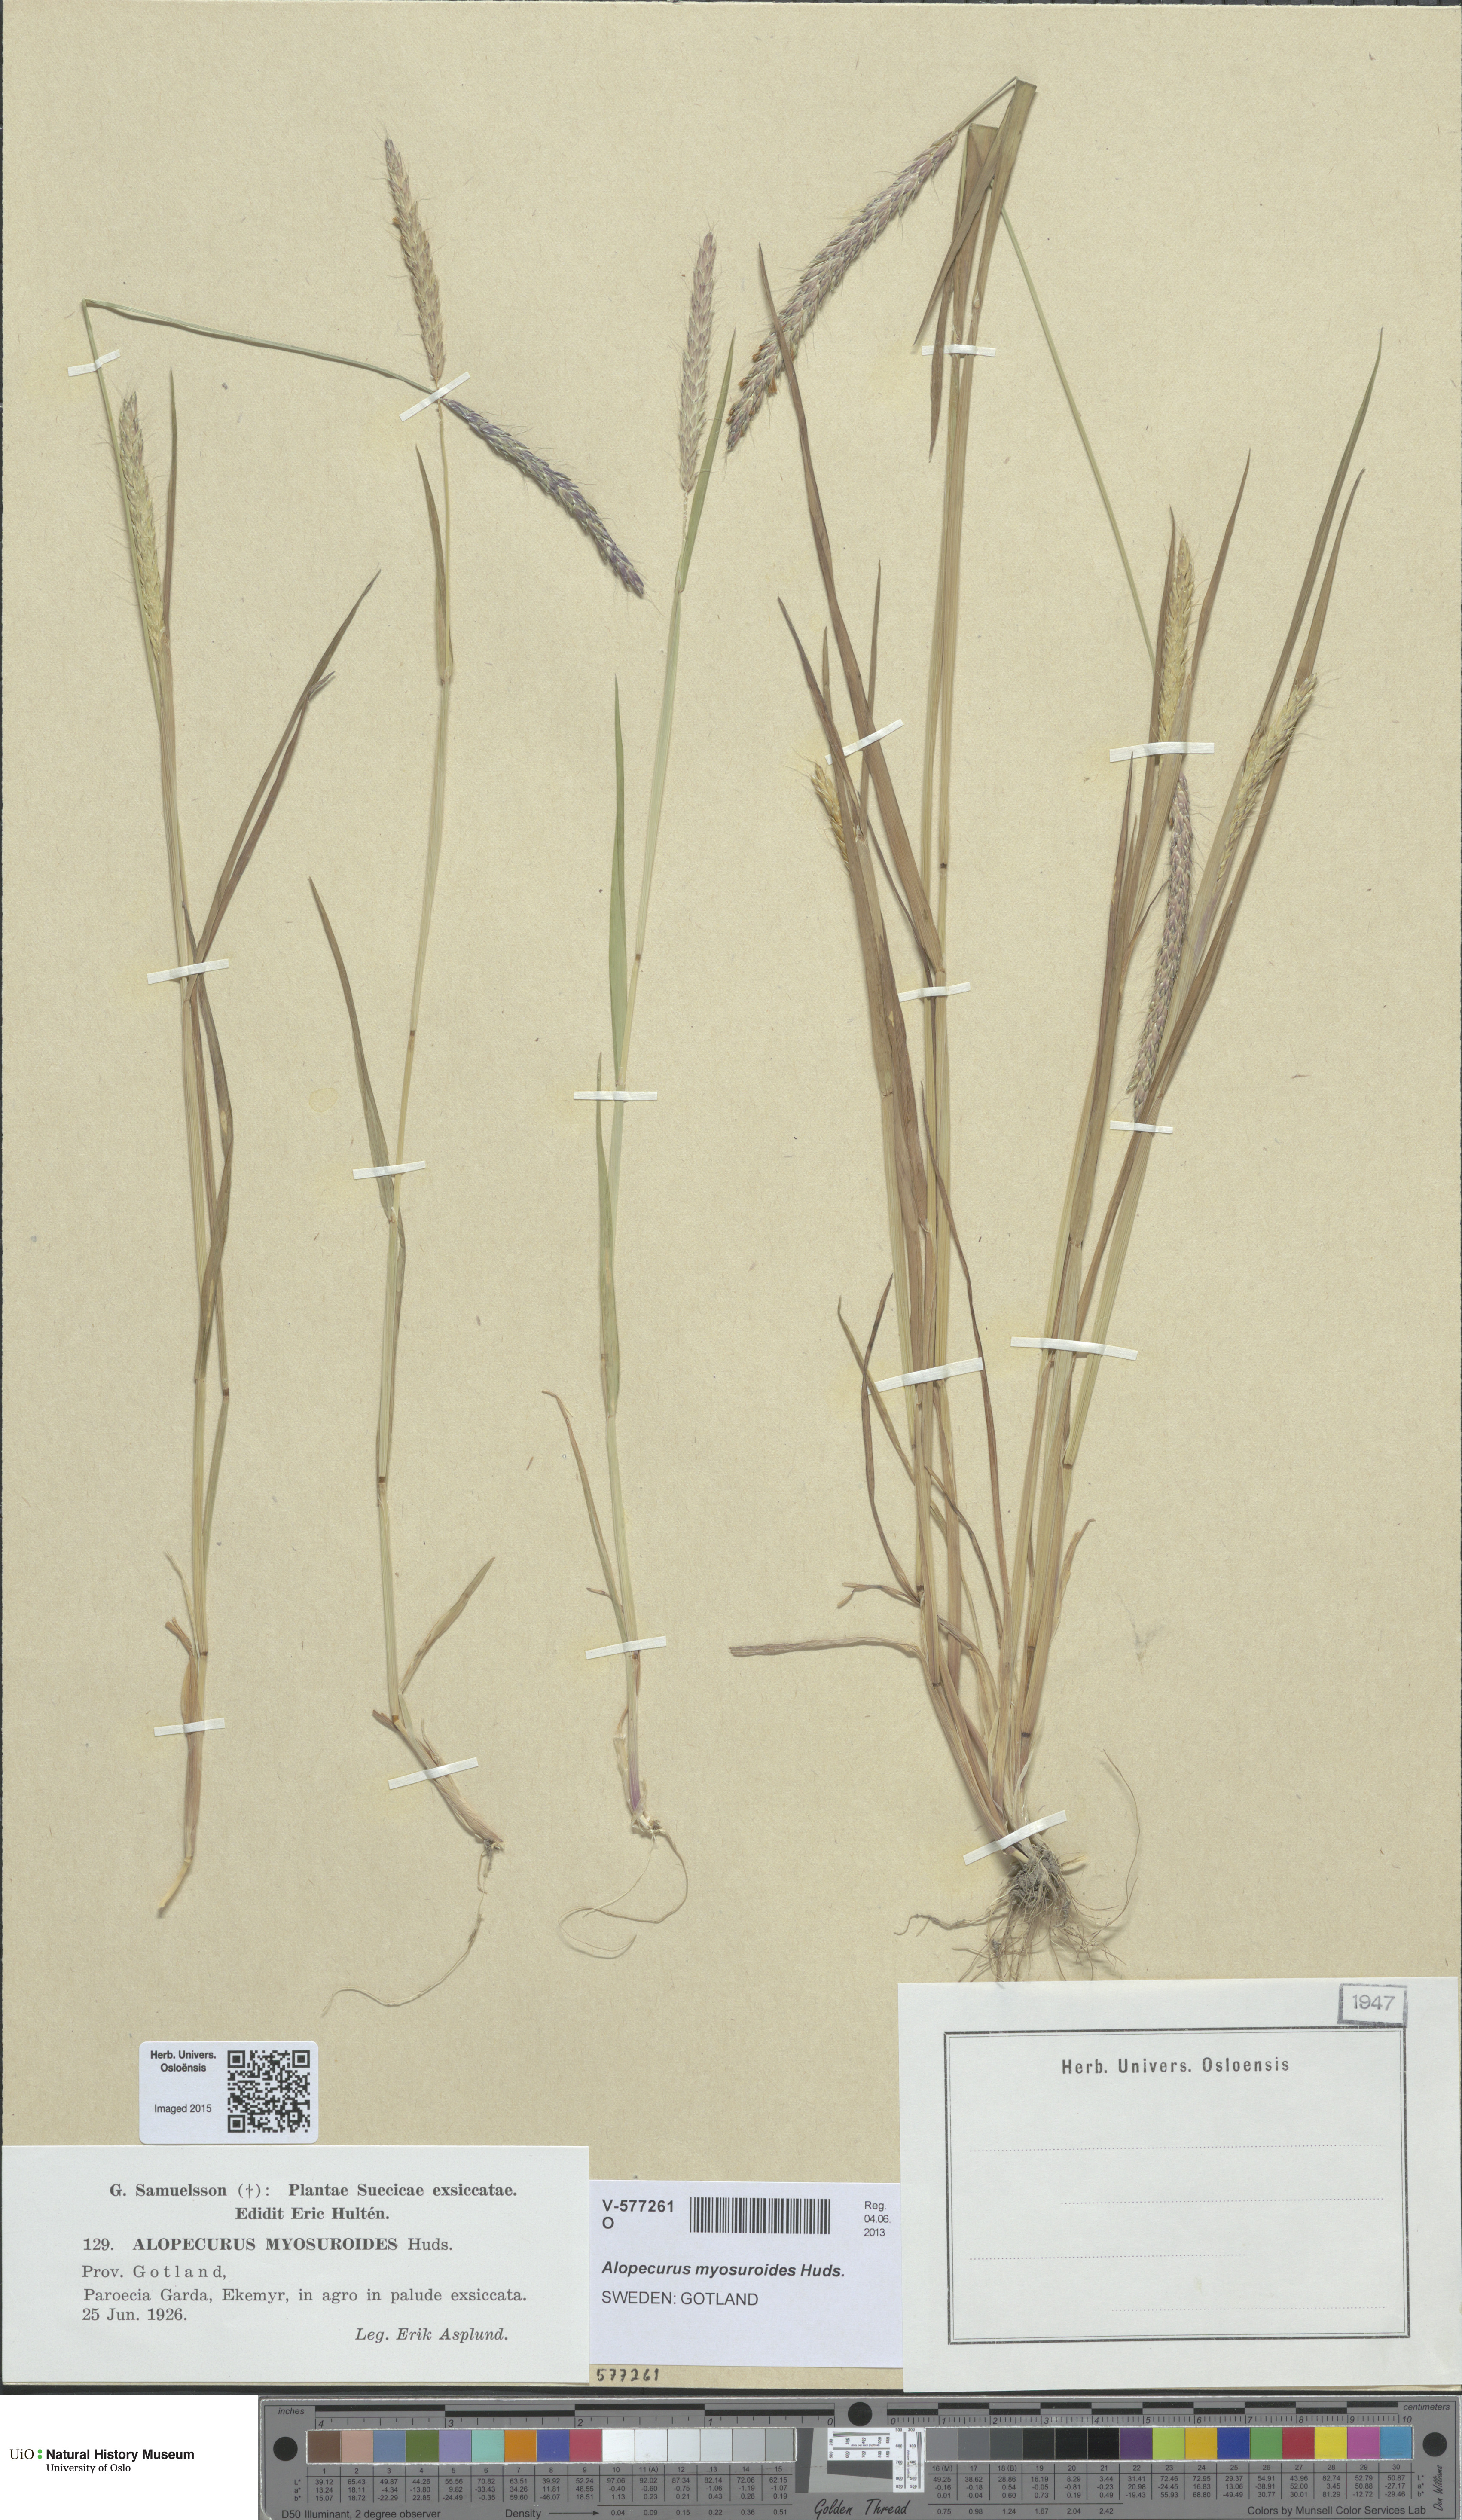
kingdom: Plantae
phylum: Tracheophyta
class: Liliopsida
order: Poales
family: Poaceae
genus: Alopecurus
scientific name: Alopecurus myosuroides
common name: Black-grass
